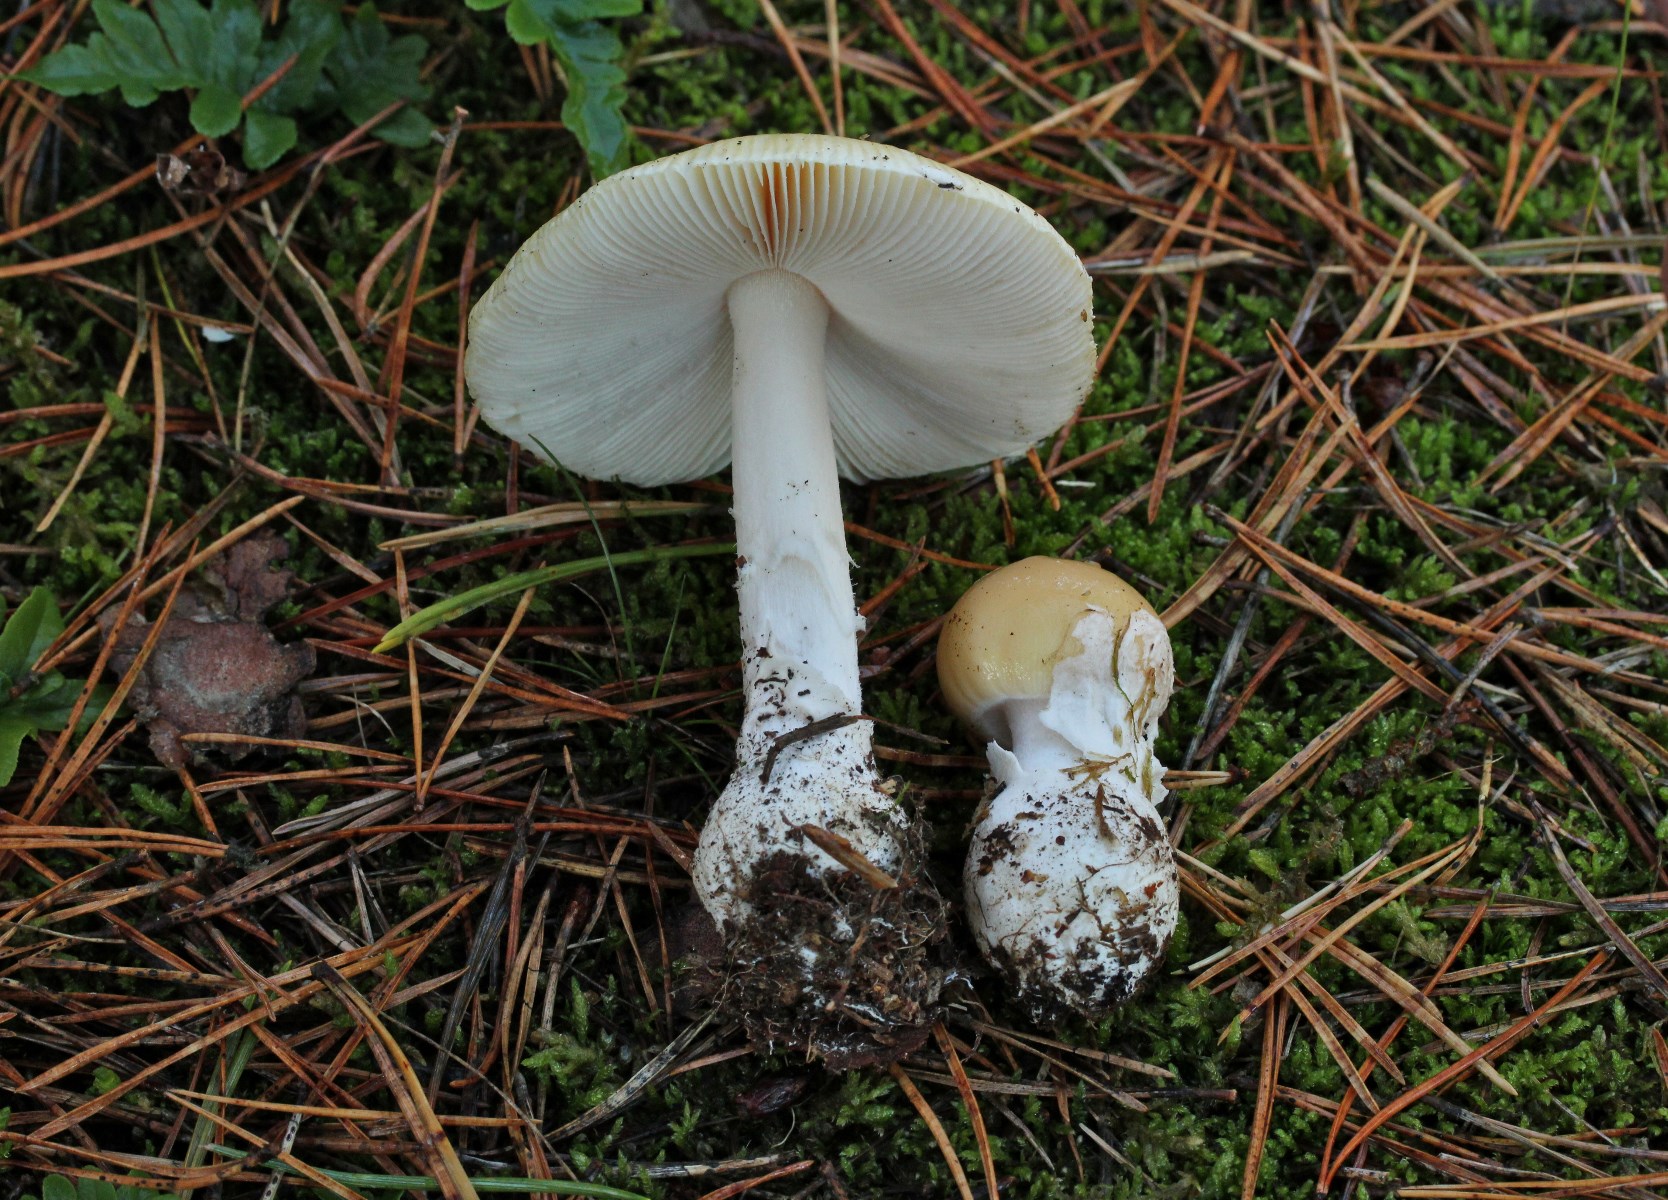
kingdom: Fungi
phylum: Basidiomycota
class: Agaricomycetes
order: Agaricales
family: Amanitaceae
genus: Amanita
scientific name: Amanita gemmata
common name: okkergul fluesvamp
